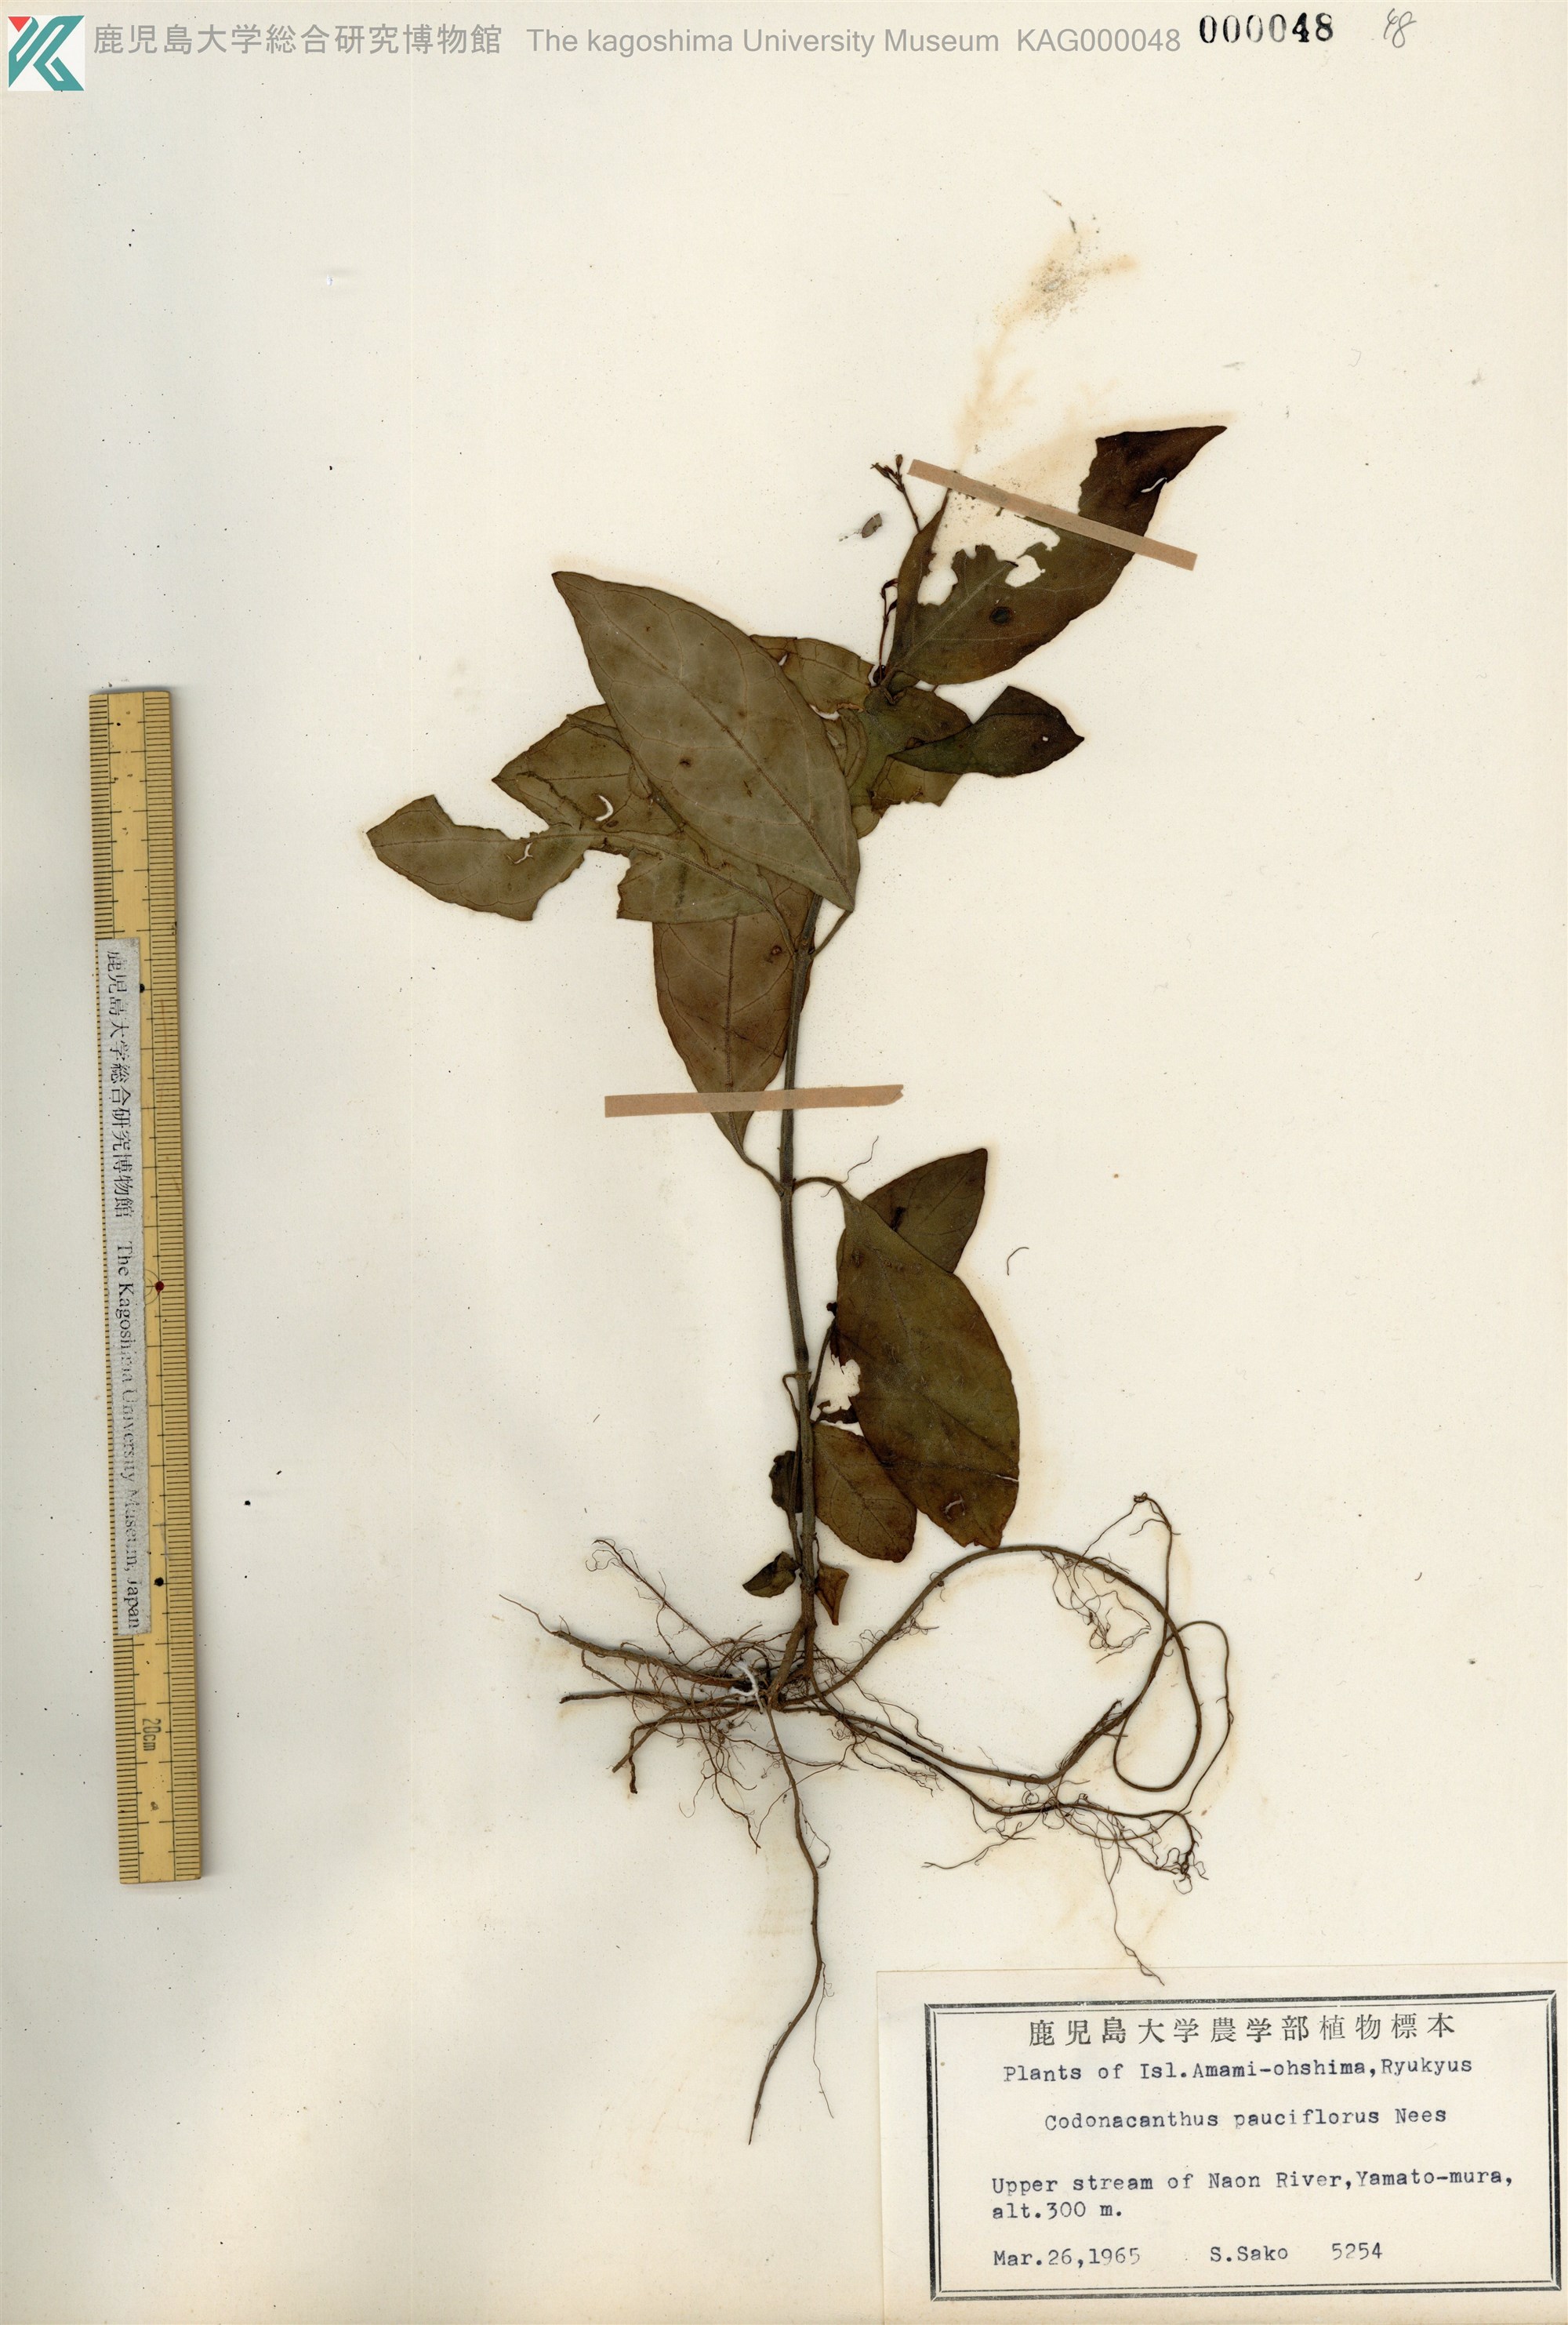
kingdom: Plantae
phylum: Tracheophyta
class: Magnoliopsida
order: Lamiales
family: Acanthaceae
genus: Codonacanthus
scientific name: Codonacanthus pauciflorus
